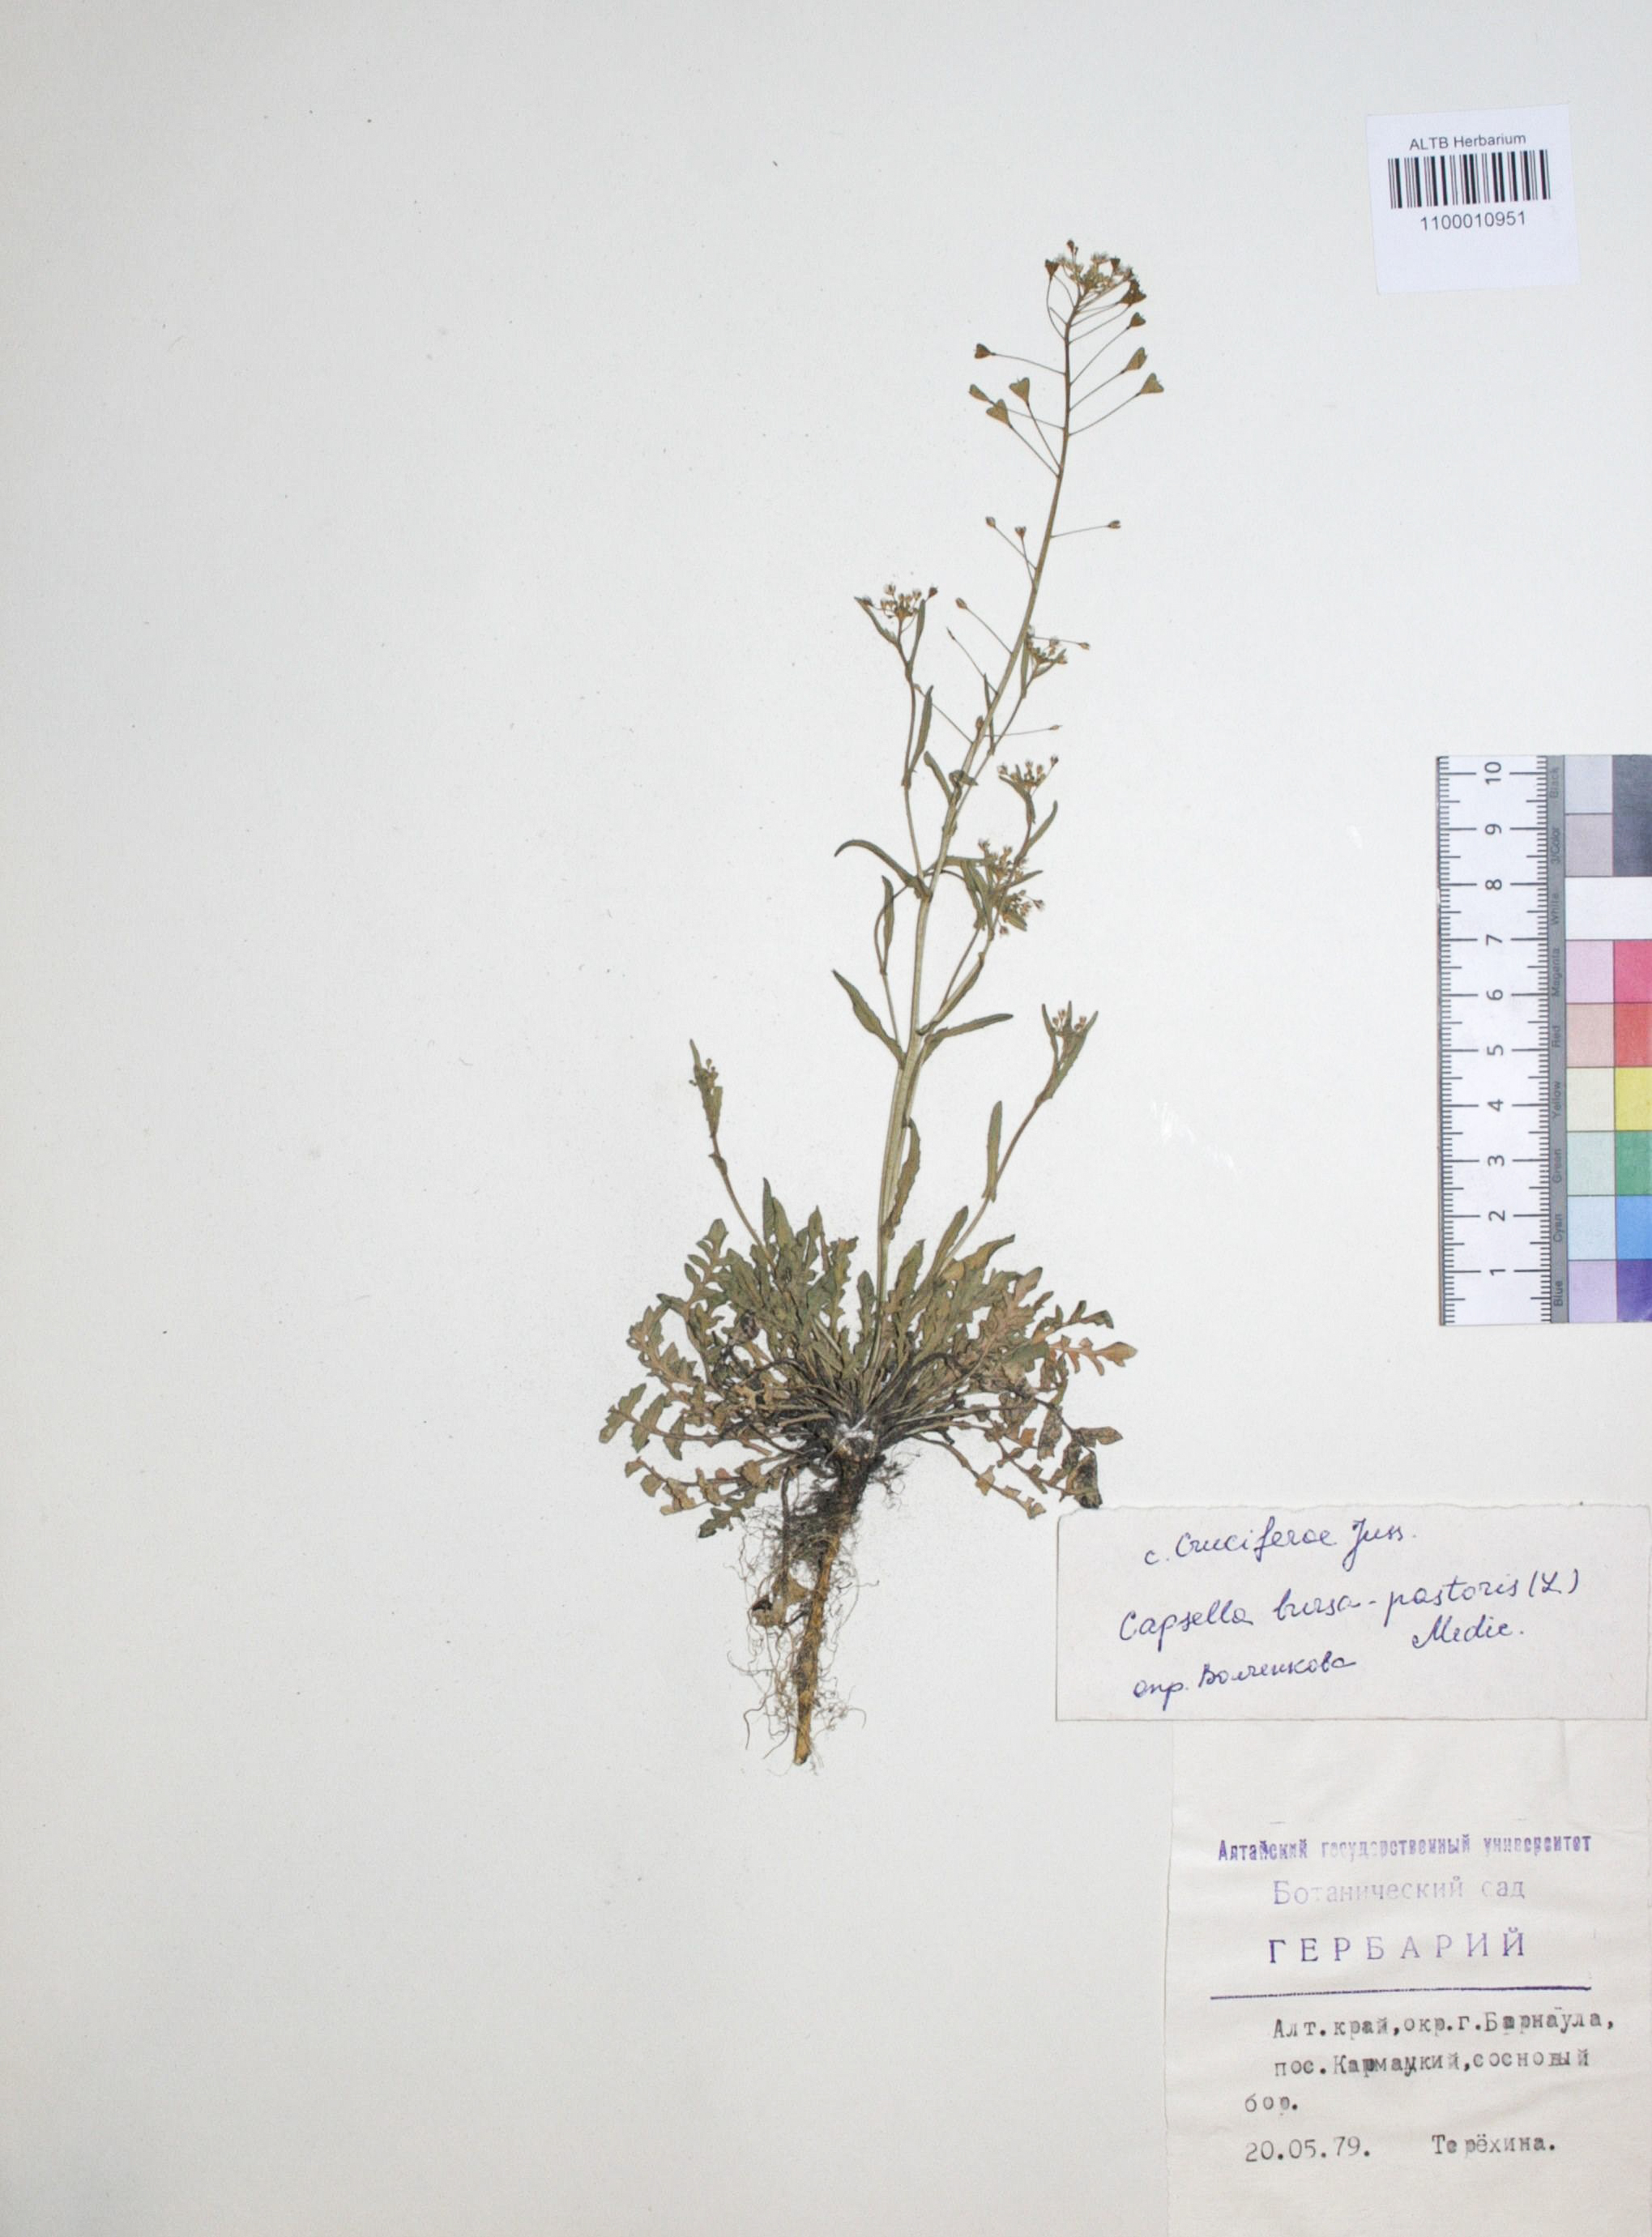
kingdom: Plantae
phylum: Tracheophyta
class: Magnoliopsida
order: Brassicales
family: Brassicaceae
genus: Capsella
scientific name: Capsella bursa-pastoris
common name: Shepherd's purse
